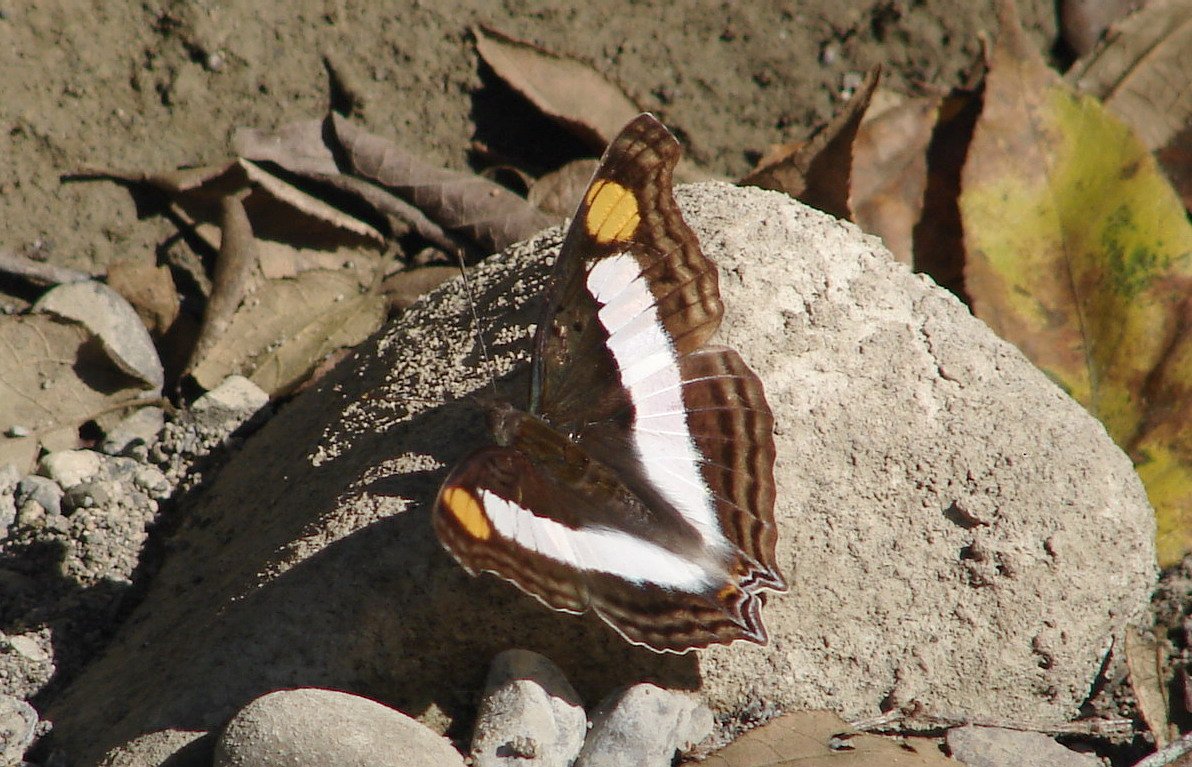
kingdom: Animalia
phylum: Arthropoda
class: Insecta
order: Lepidoptera
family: Nymphalidae
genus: Doxocopa
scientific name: Doxocopa laure
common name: Silver Emperor
